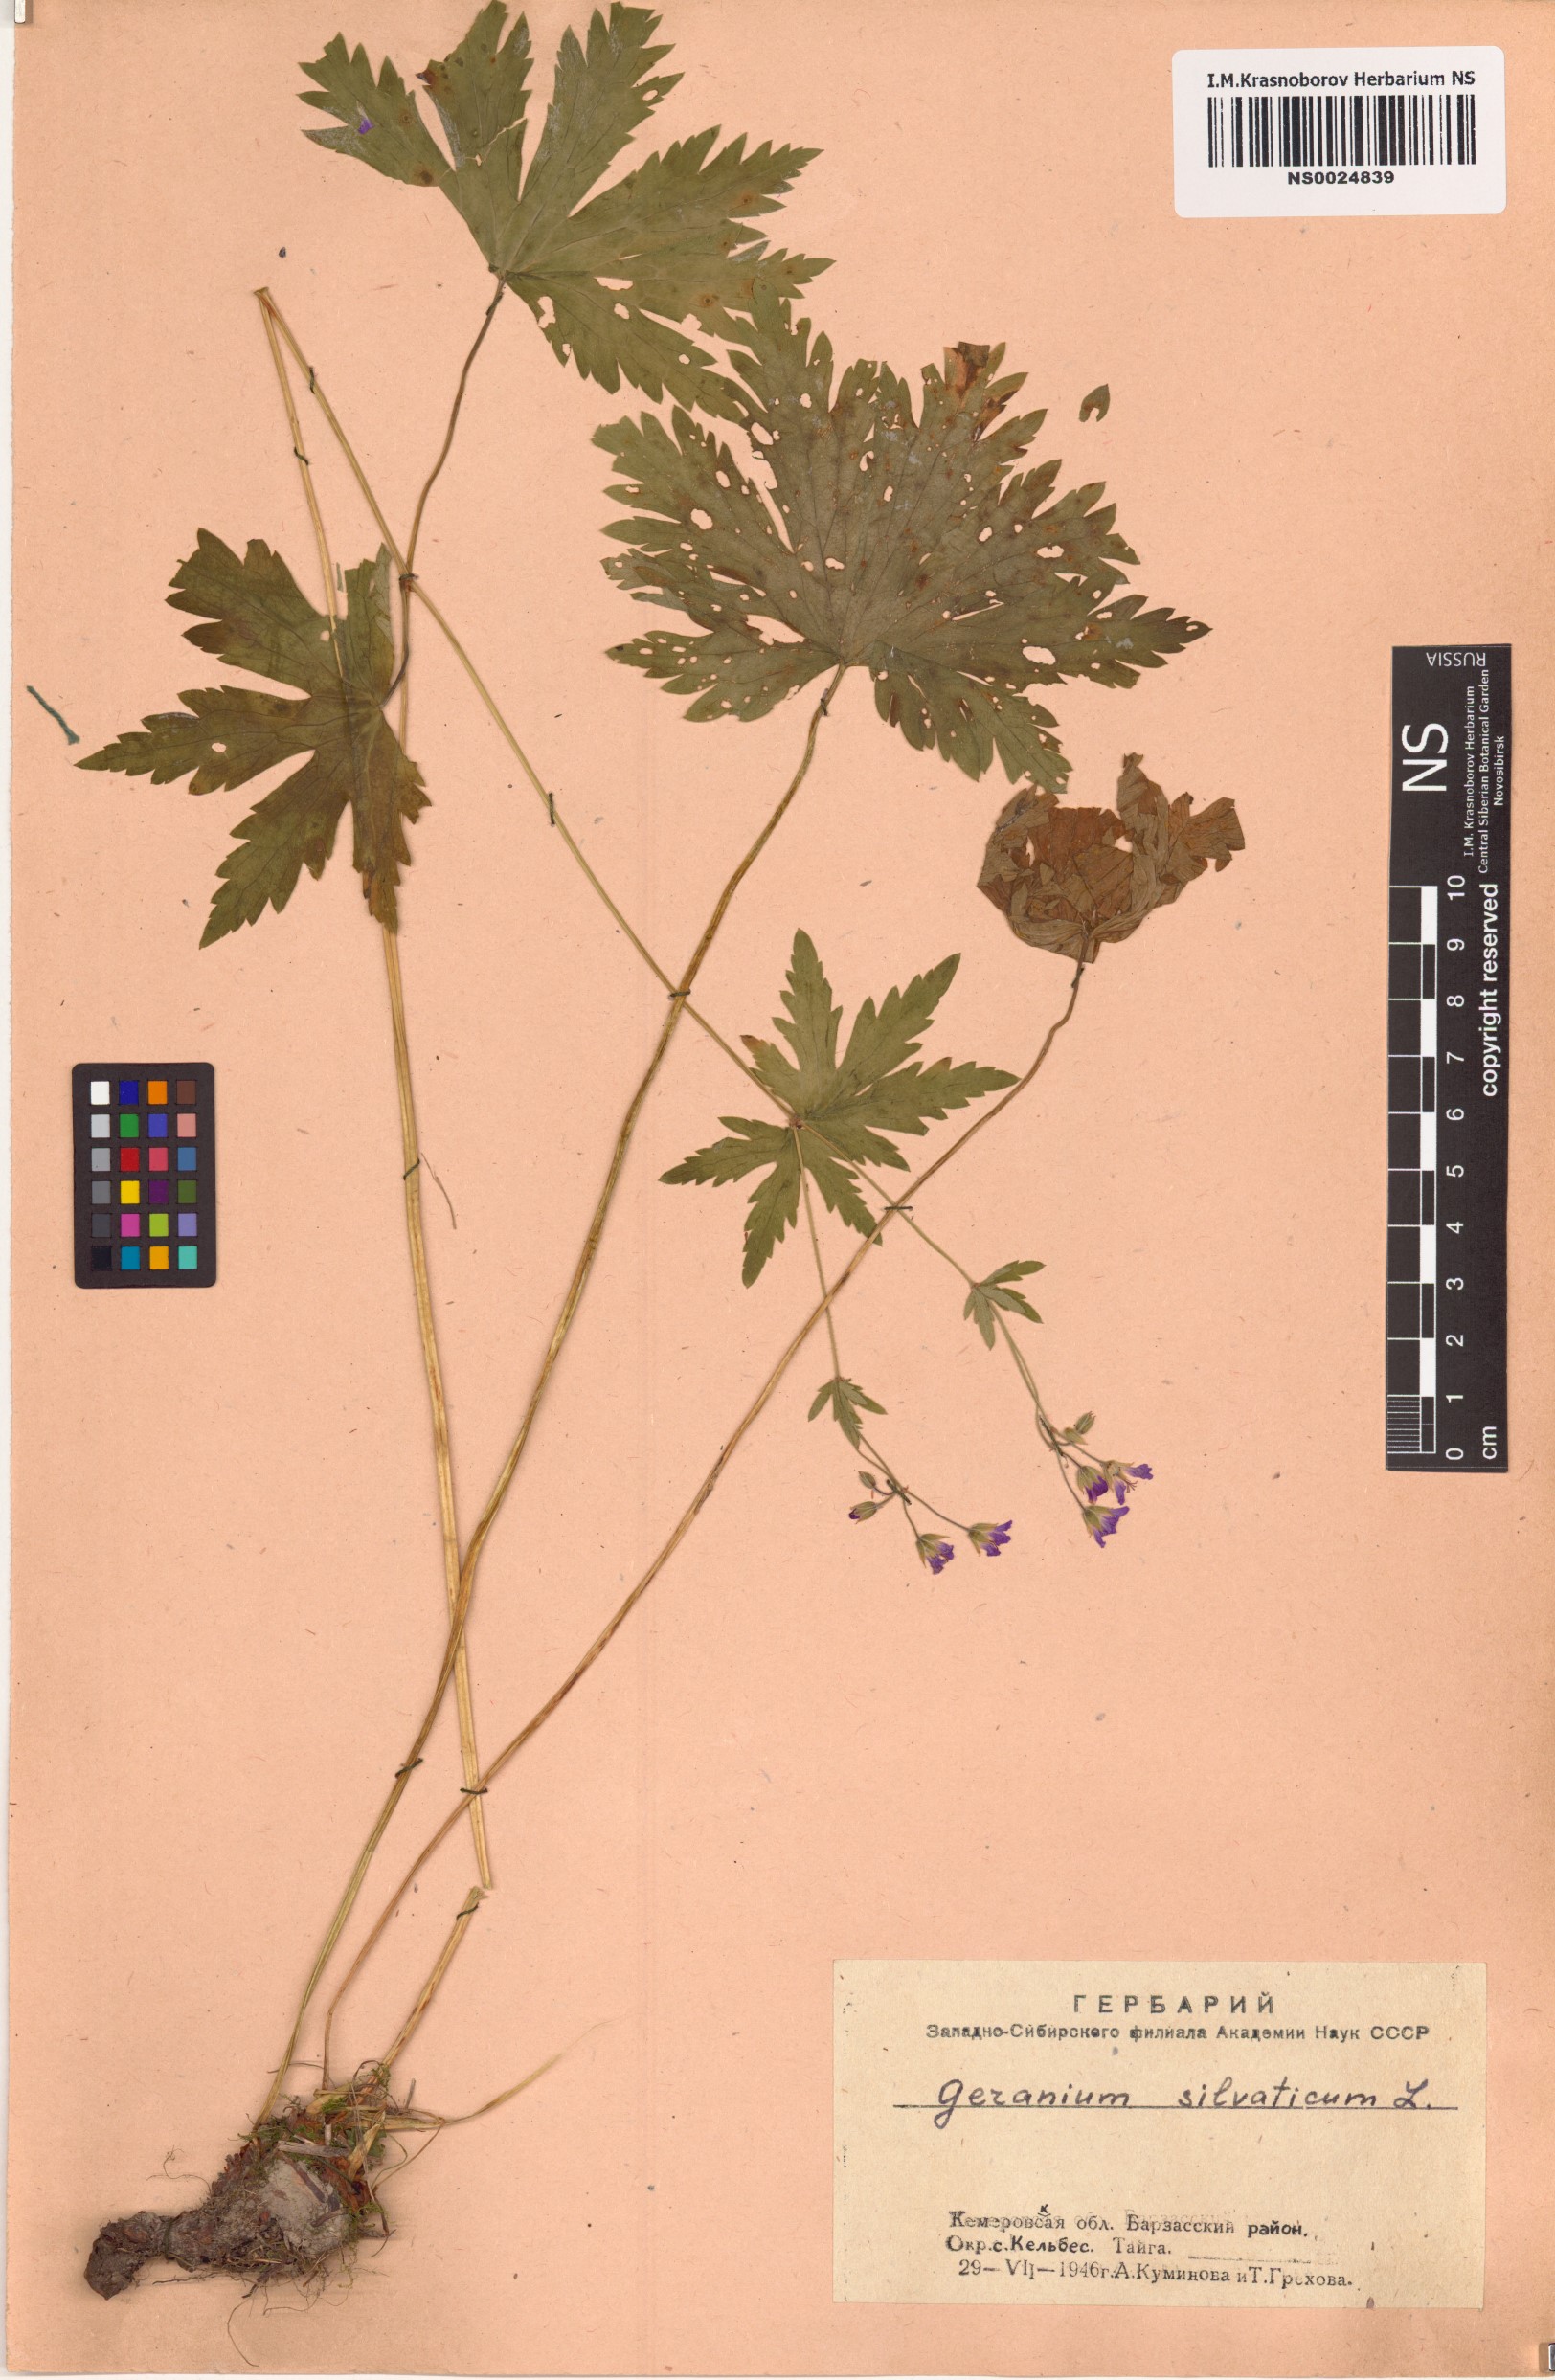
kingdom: Plantae
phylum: Tracheophyta
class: Magnoliopsida
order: Geraniales
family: Geraniaceae
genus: Geranium
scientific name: Geranium sylvaticum
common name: Wood crane's-bill
